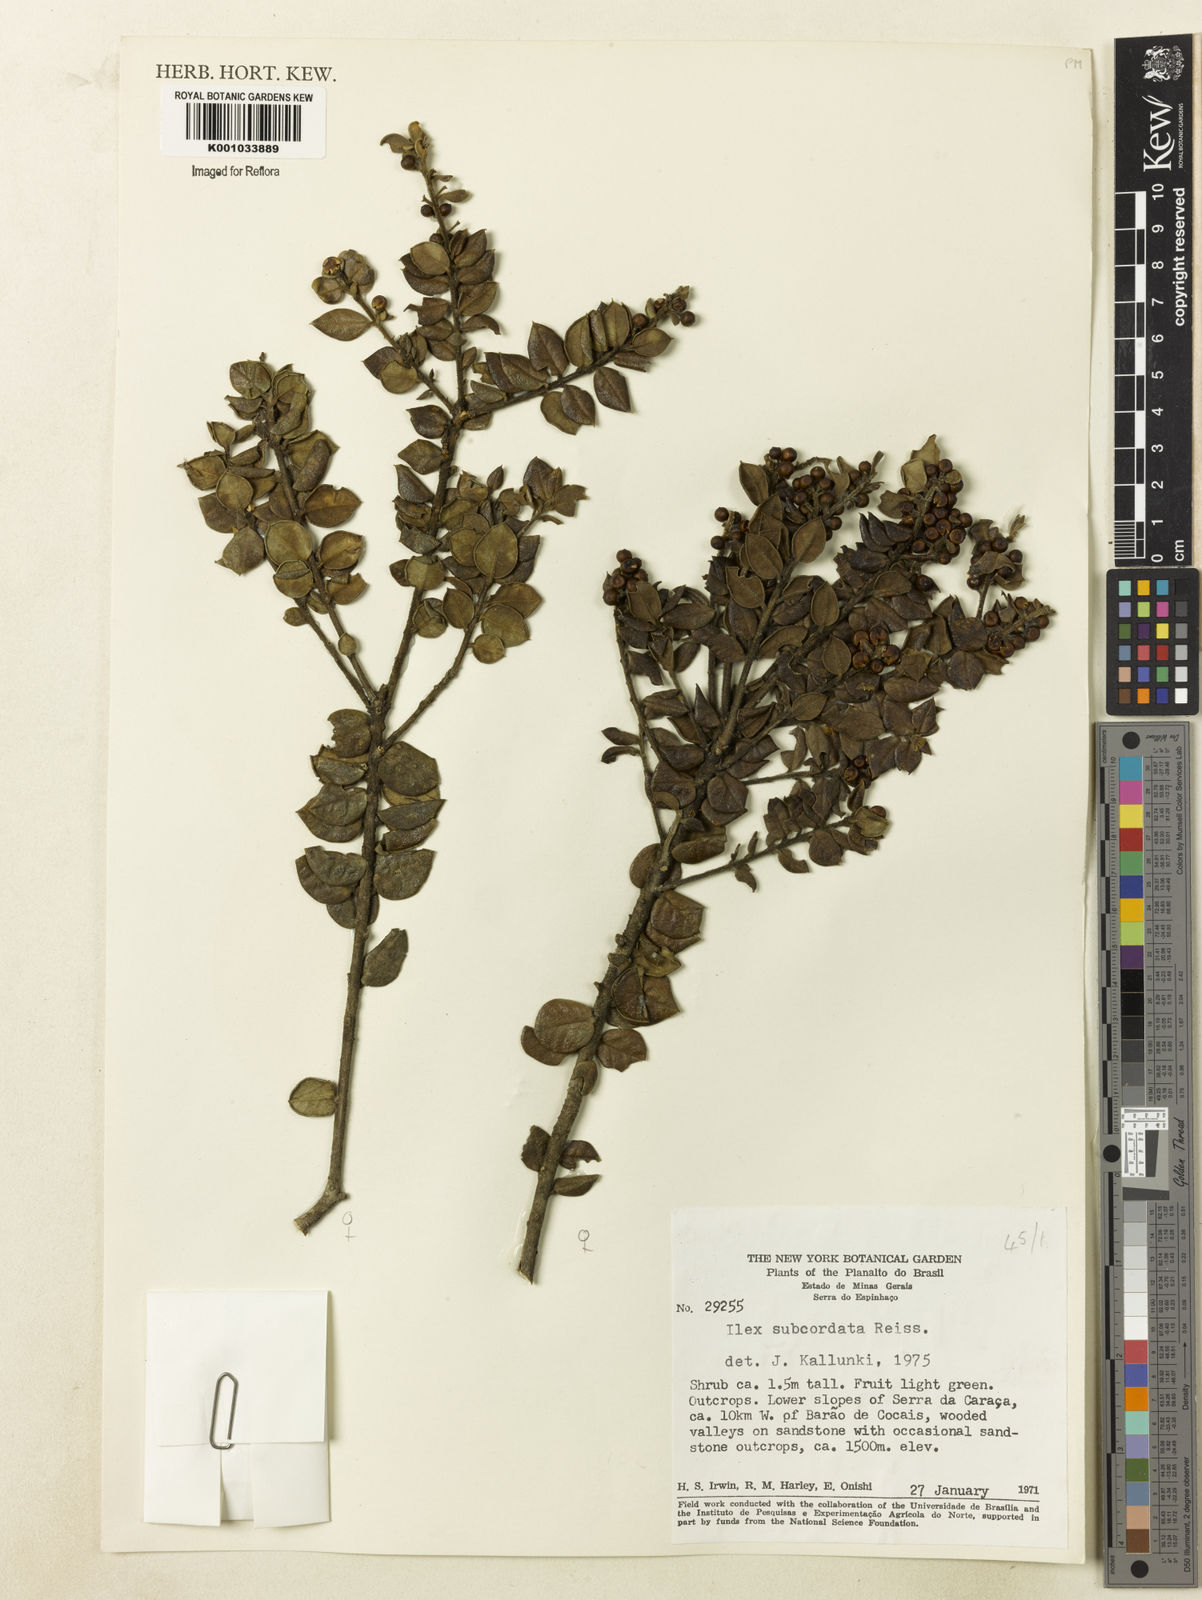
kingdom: Plantae
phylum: Tracheophyta
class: Magnoliopsida
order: Aquifoliales
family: Aquifoliaceae
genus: Ilex
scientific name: Ilex subcordata
